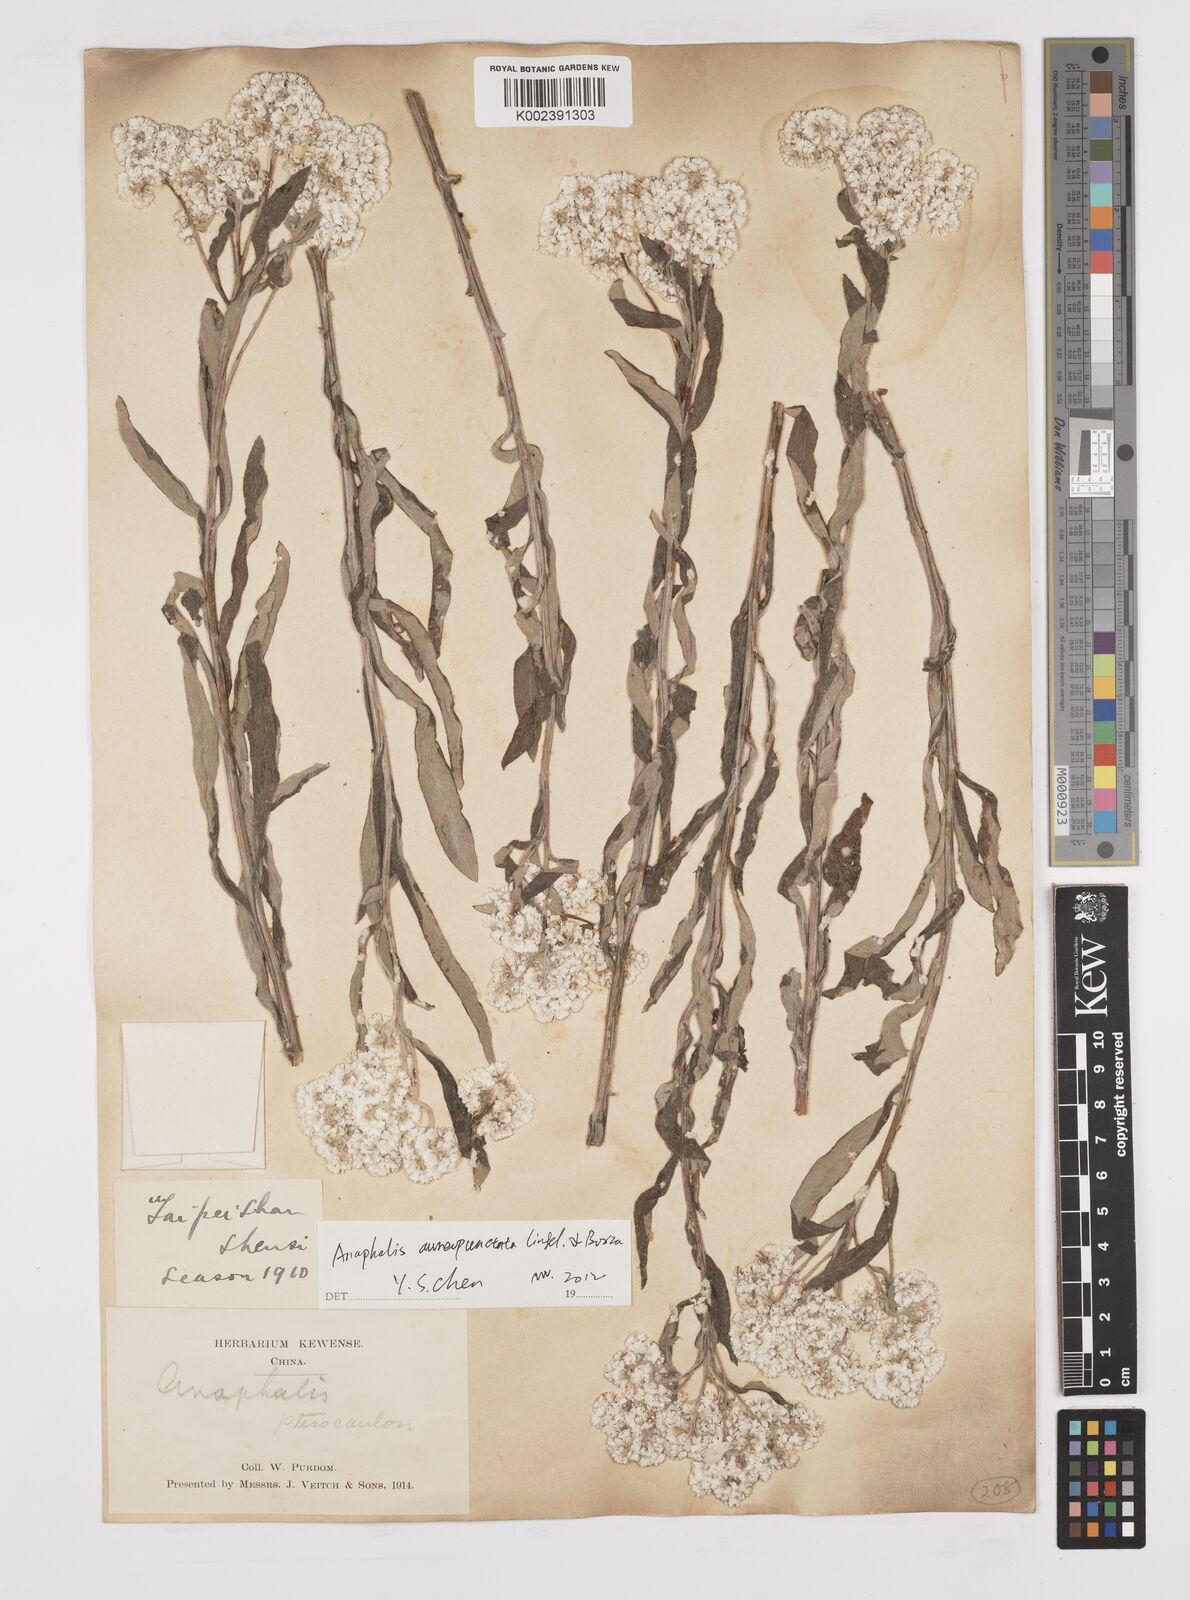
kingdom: Plantae
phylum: Tracheophyta
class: Magnoliopsida
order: Asterales
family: Asteraceae
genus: Anaphalis
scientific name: Anaphalis sinica
